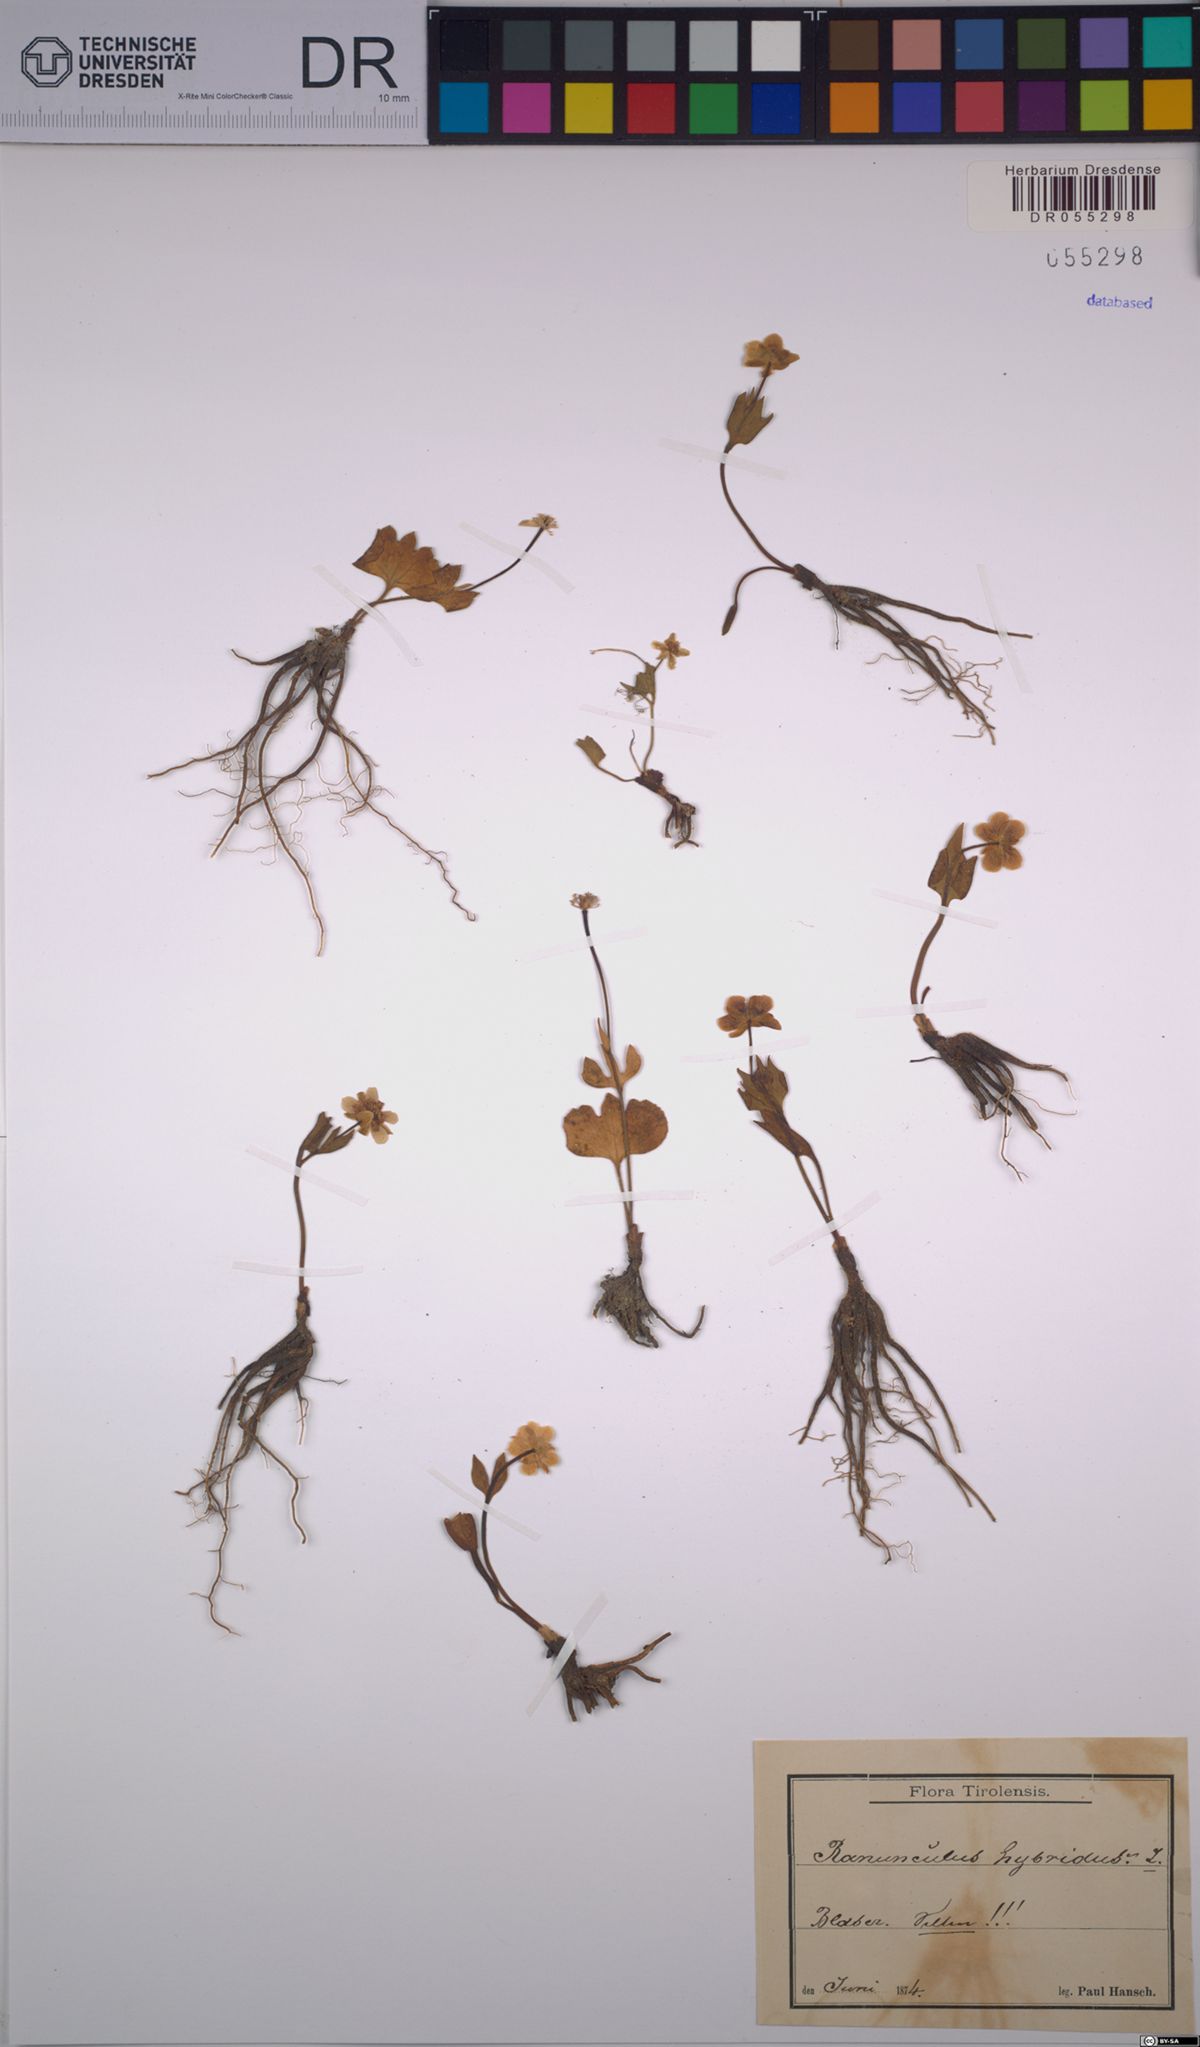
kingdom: Plantae
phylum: Tracheophyta
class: Magnoliopsida
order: Ranunculales
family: Ranunculaceae
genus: Ranunculus
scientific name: Ranunculus hybridus
